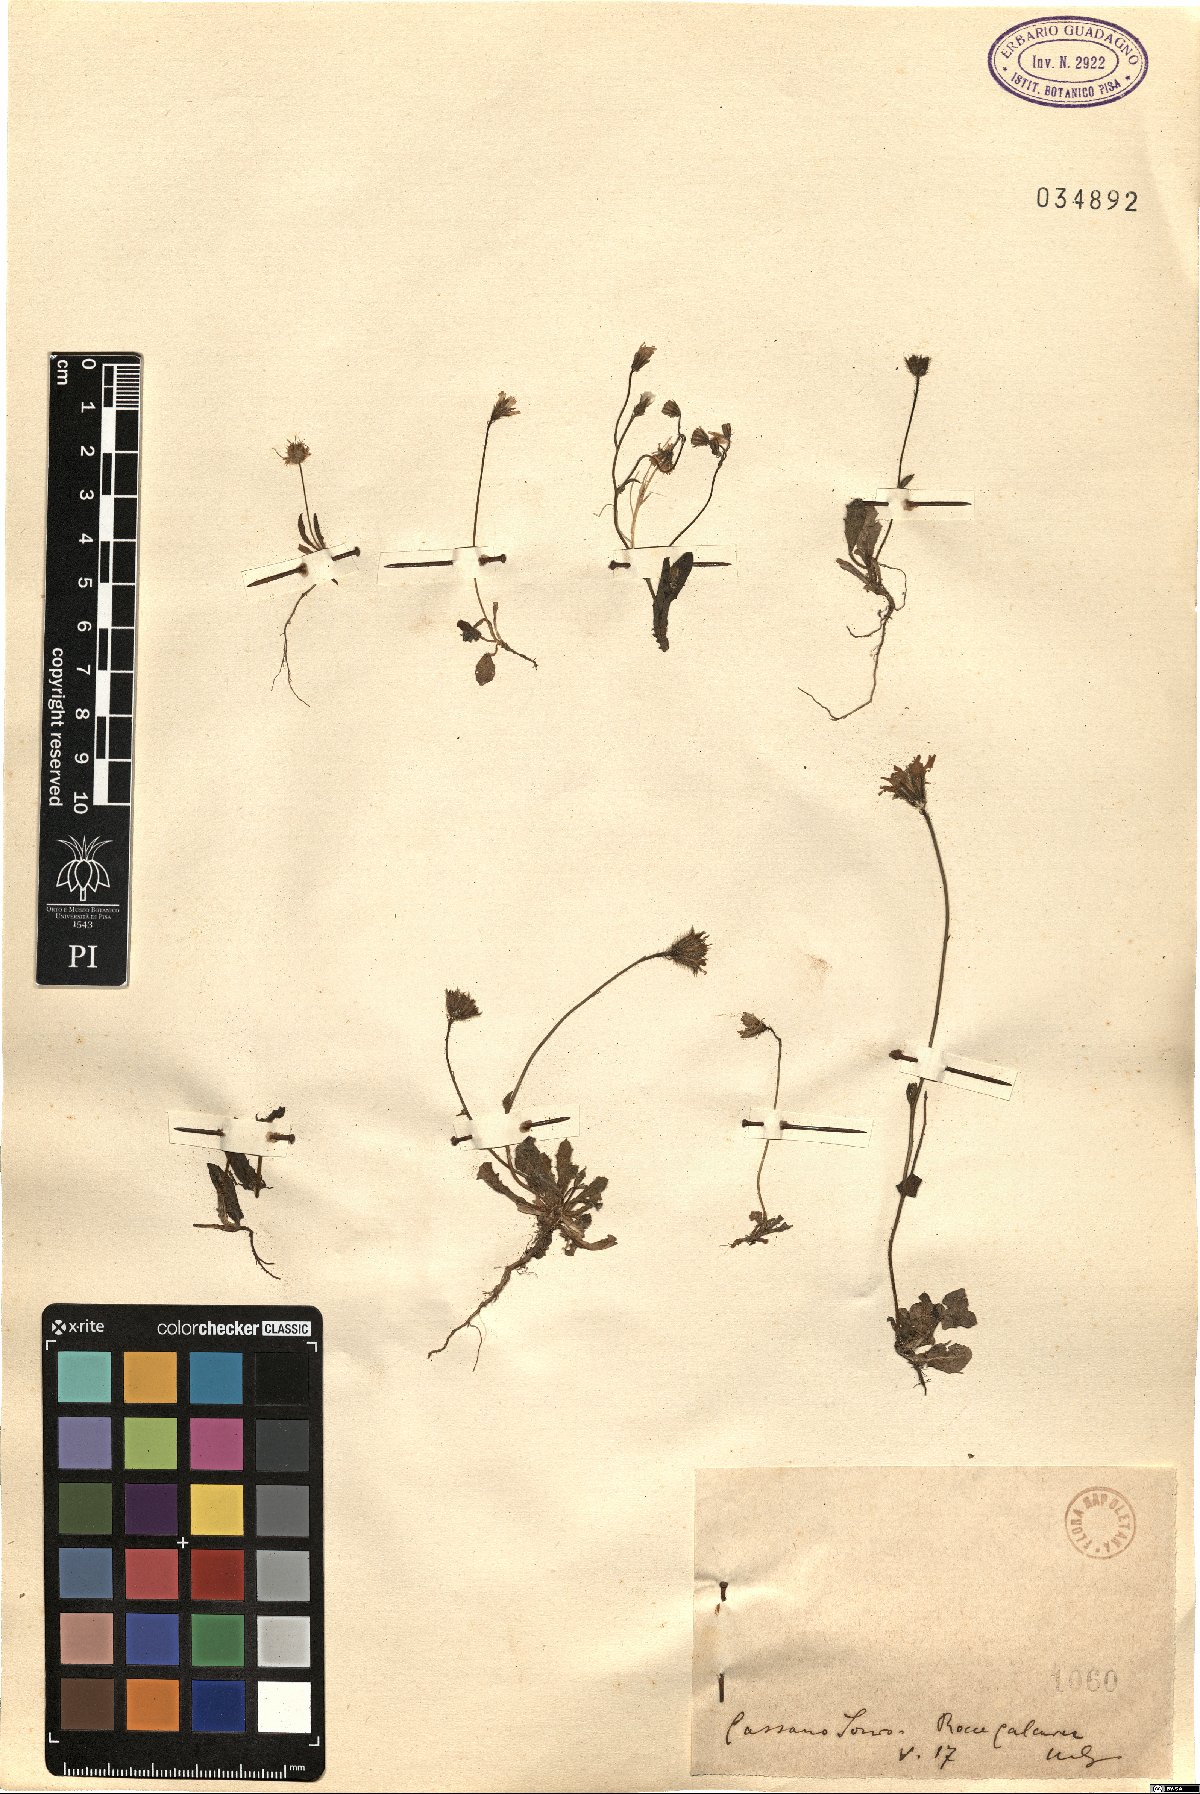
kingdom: Plantae
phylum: Tracheophyta
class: Magnoliopsida
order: Asterales
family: Asteraceae
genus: Hypochaeris
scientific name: Hypochaeris
